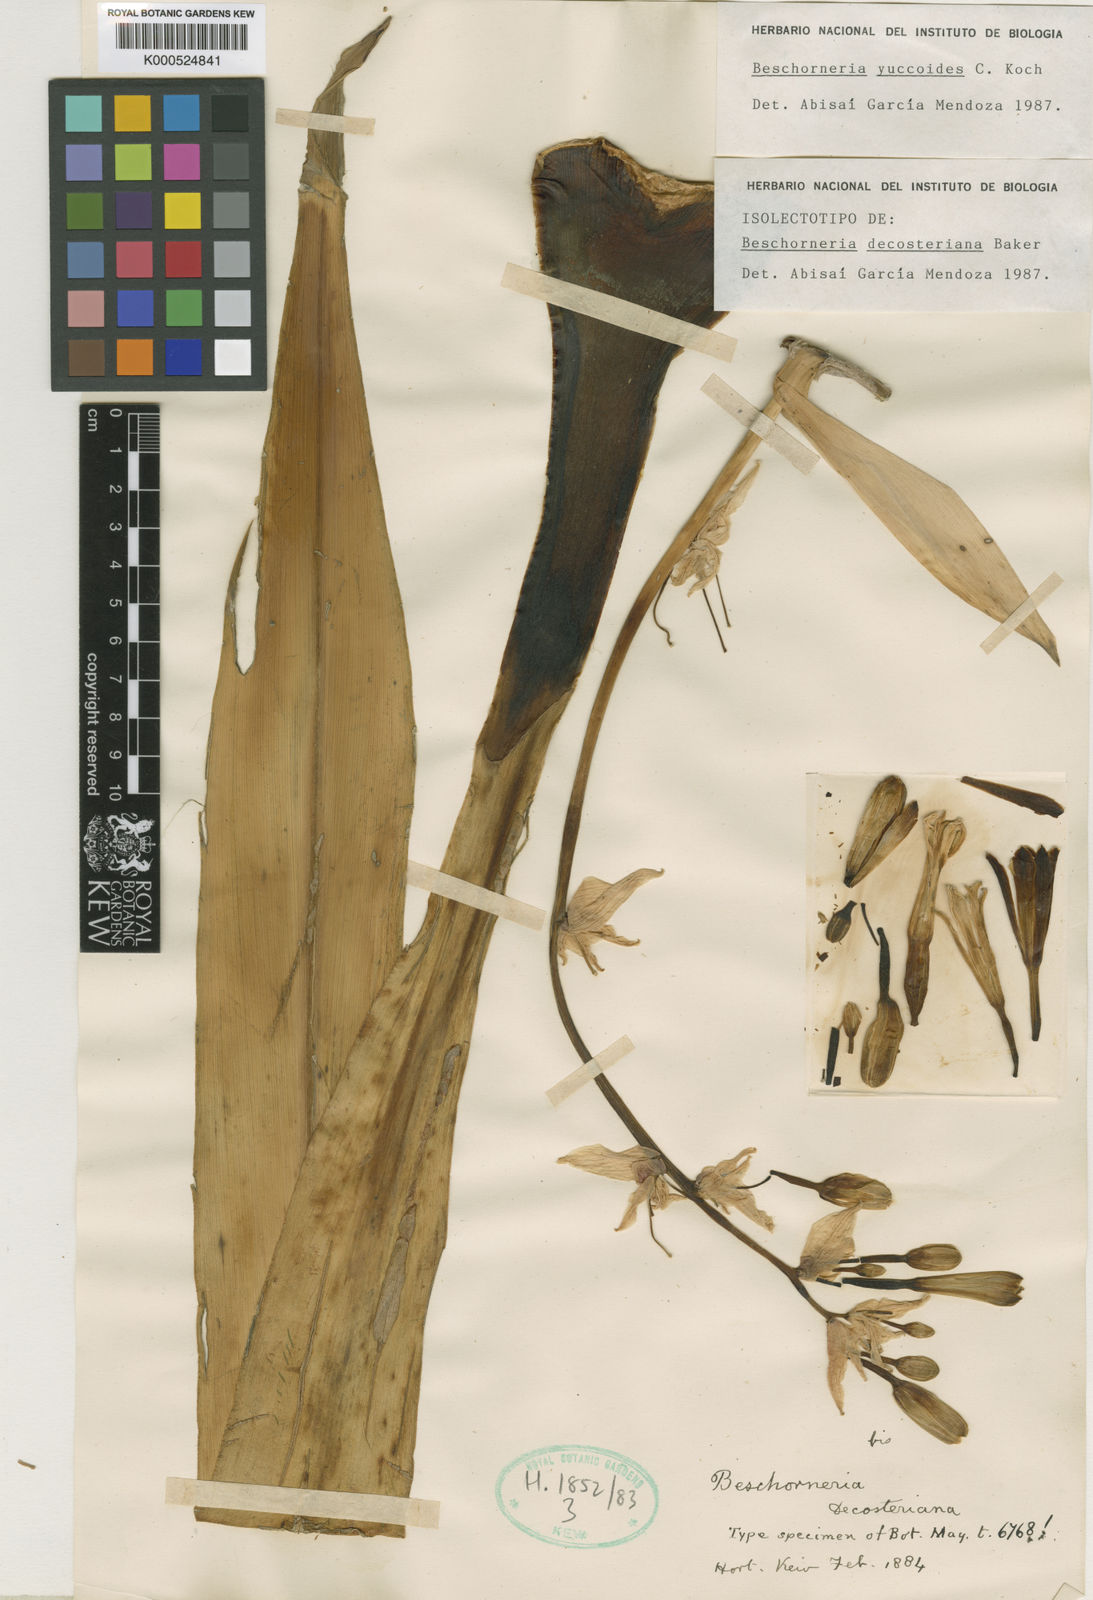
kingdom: Plantae
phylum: Tracheophyta
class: Liliopsida
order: Asparagales
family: Asparagaceae
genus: Beschorneria
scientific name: Beschorneria yuccoides
